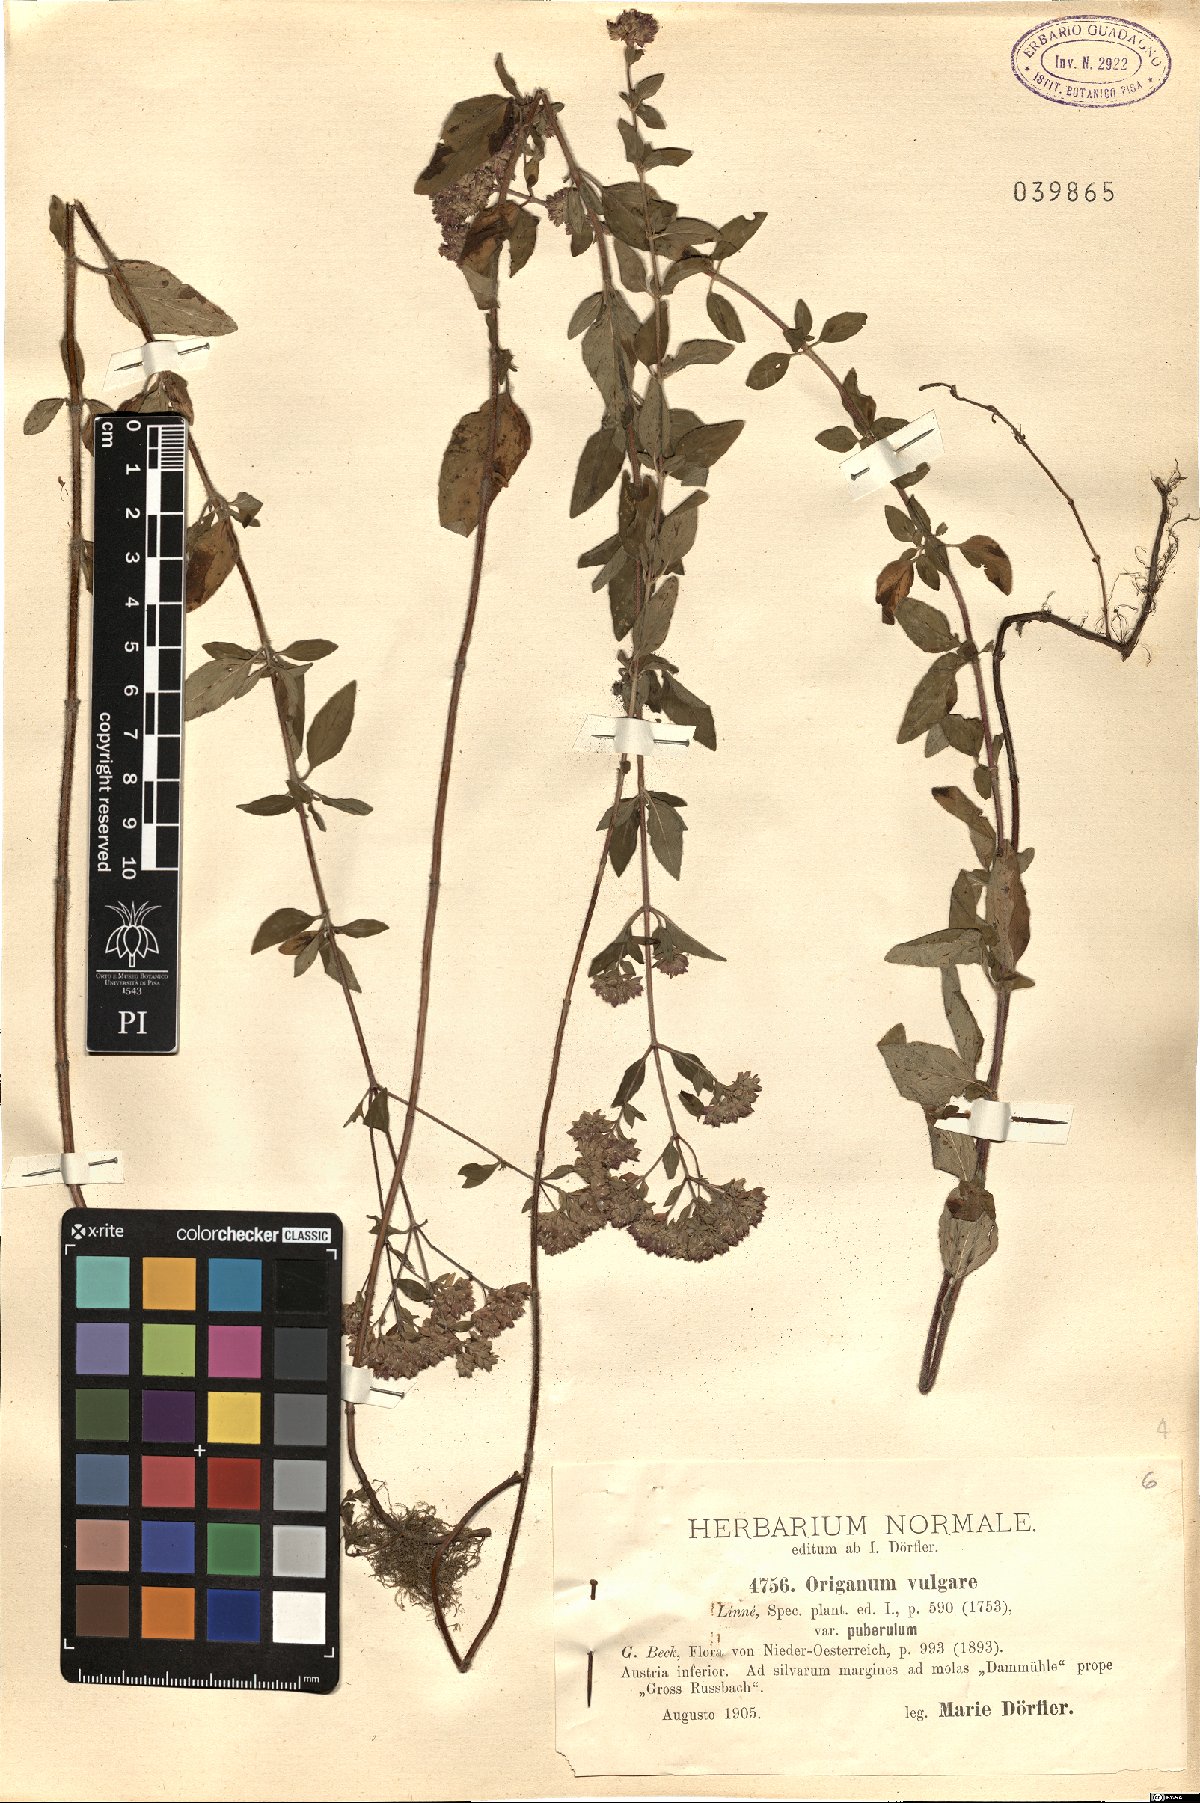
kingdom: Plantae
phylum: Tracheophyta
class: Magnoliopsida
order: Lamiales
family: Lamiaceae
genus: Origanum
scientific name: Origanum vulgare
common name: Wild marjoram
